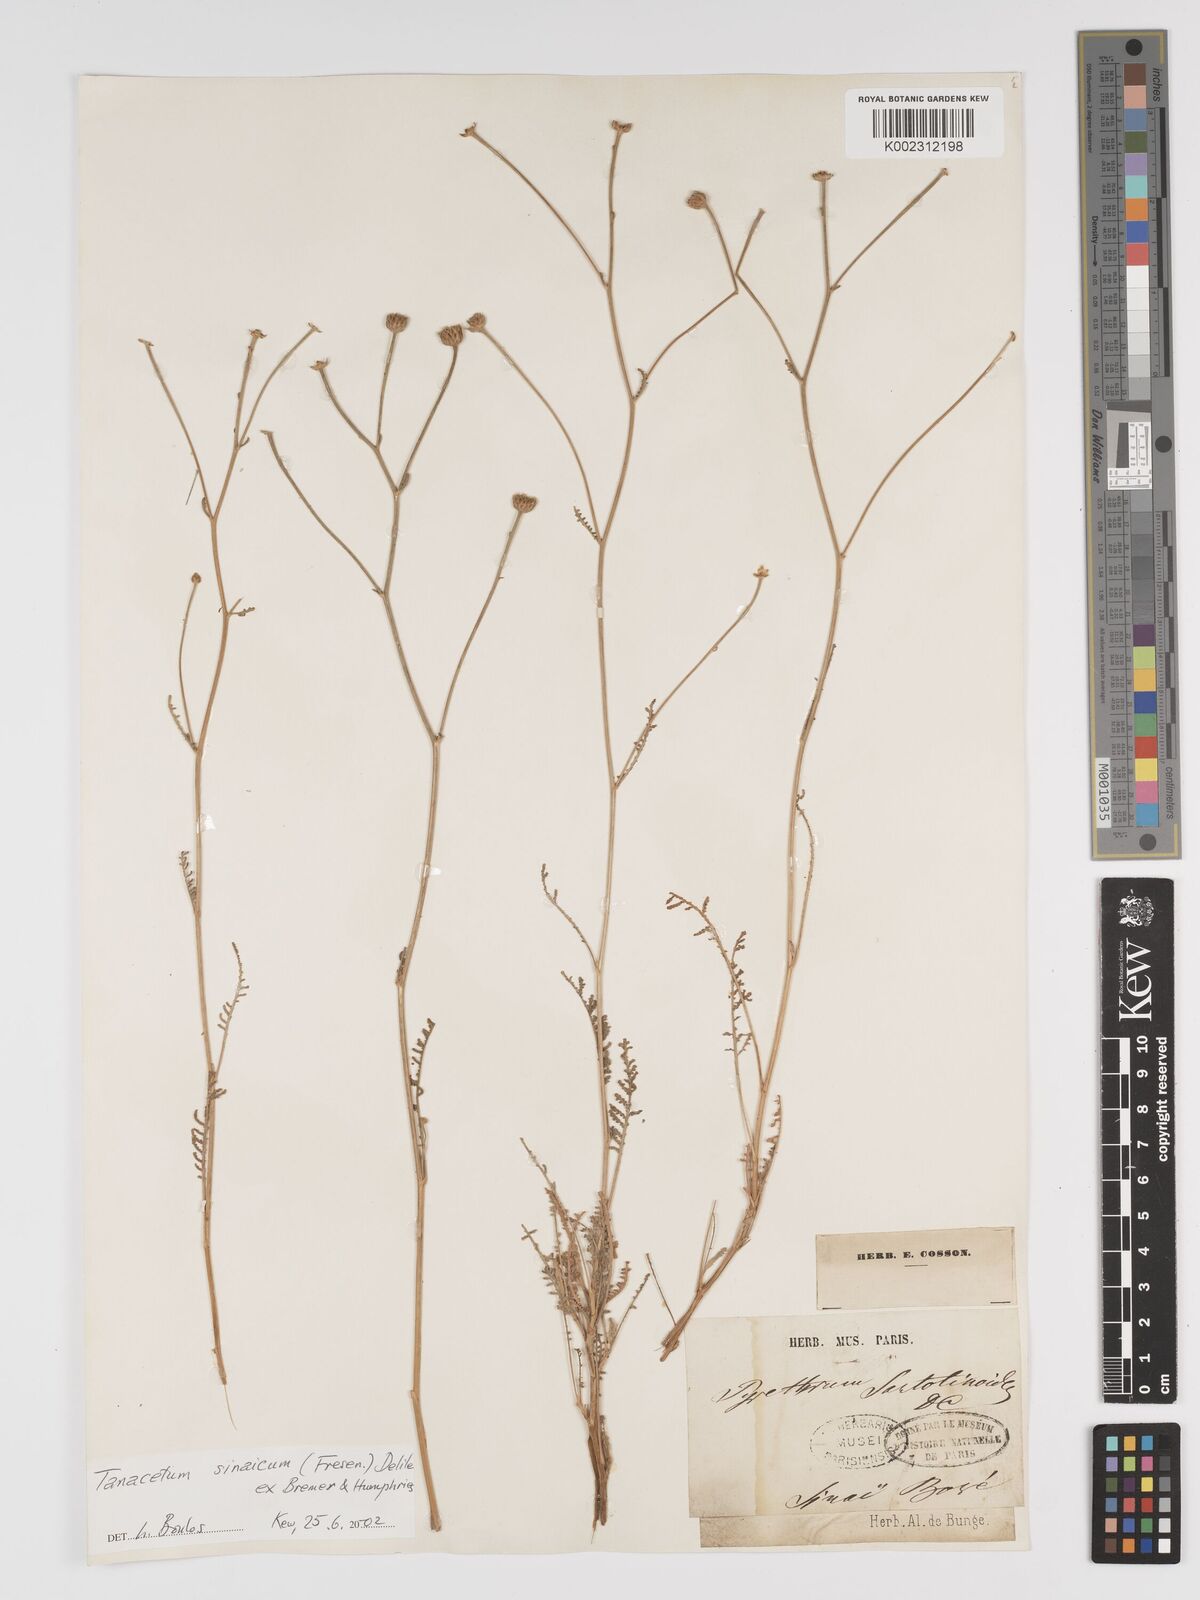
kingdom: Plantae
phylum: Tracheophyta
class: Magnoliopsida
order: Asterales
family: Asteraceae
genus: Tanacetum
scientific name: Tanacetum sinaicum
